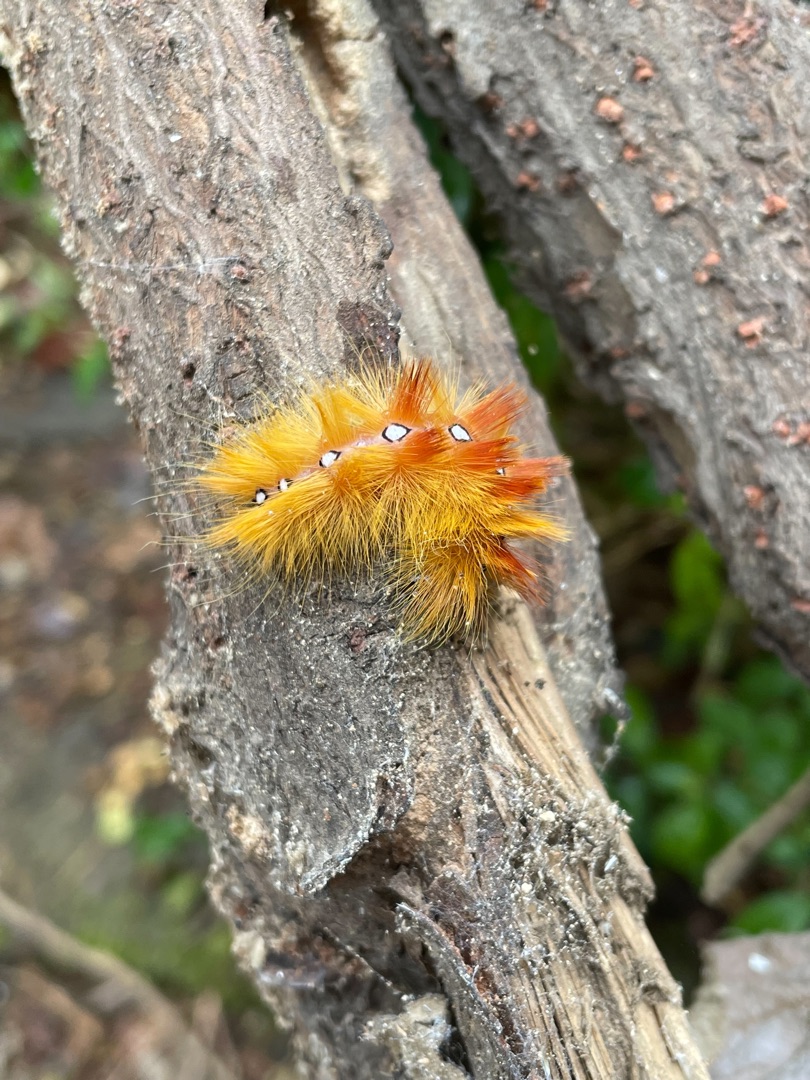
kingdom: Animalia
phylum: Arthropoda
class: Insecta
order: Lepidoptera
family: Noctuidae
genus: Acronicta
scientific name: Acronicta aceris
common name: Ahornugle
